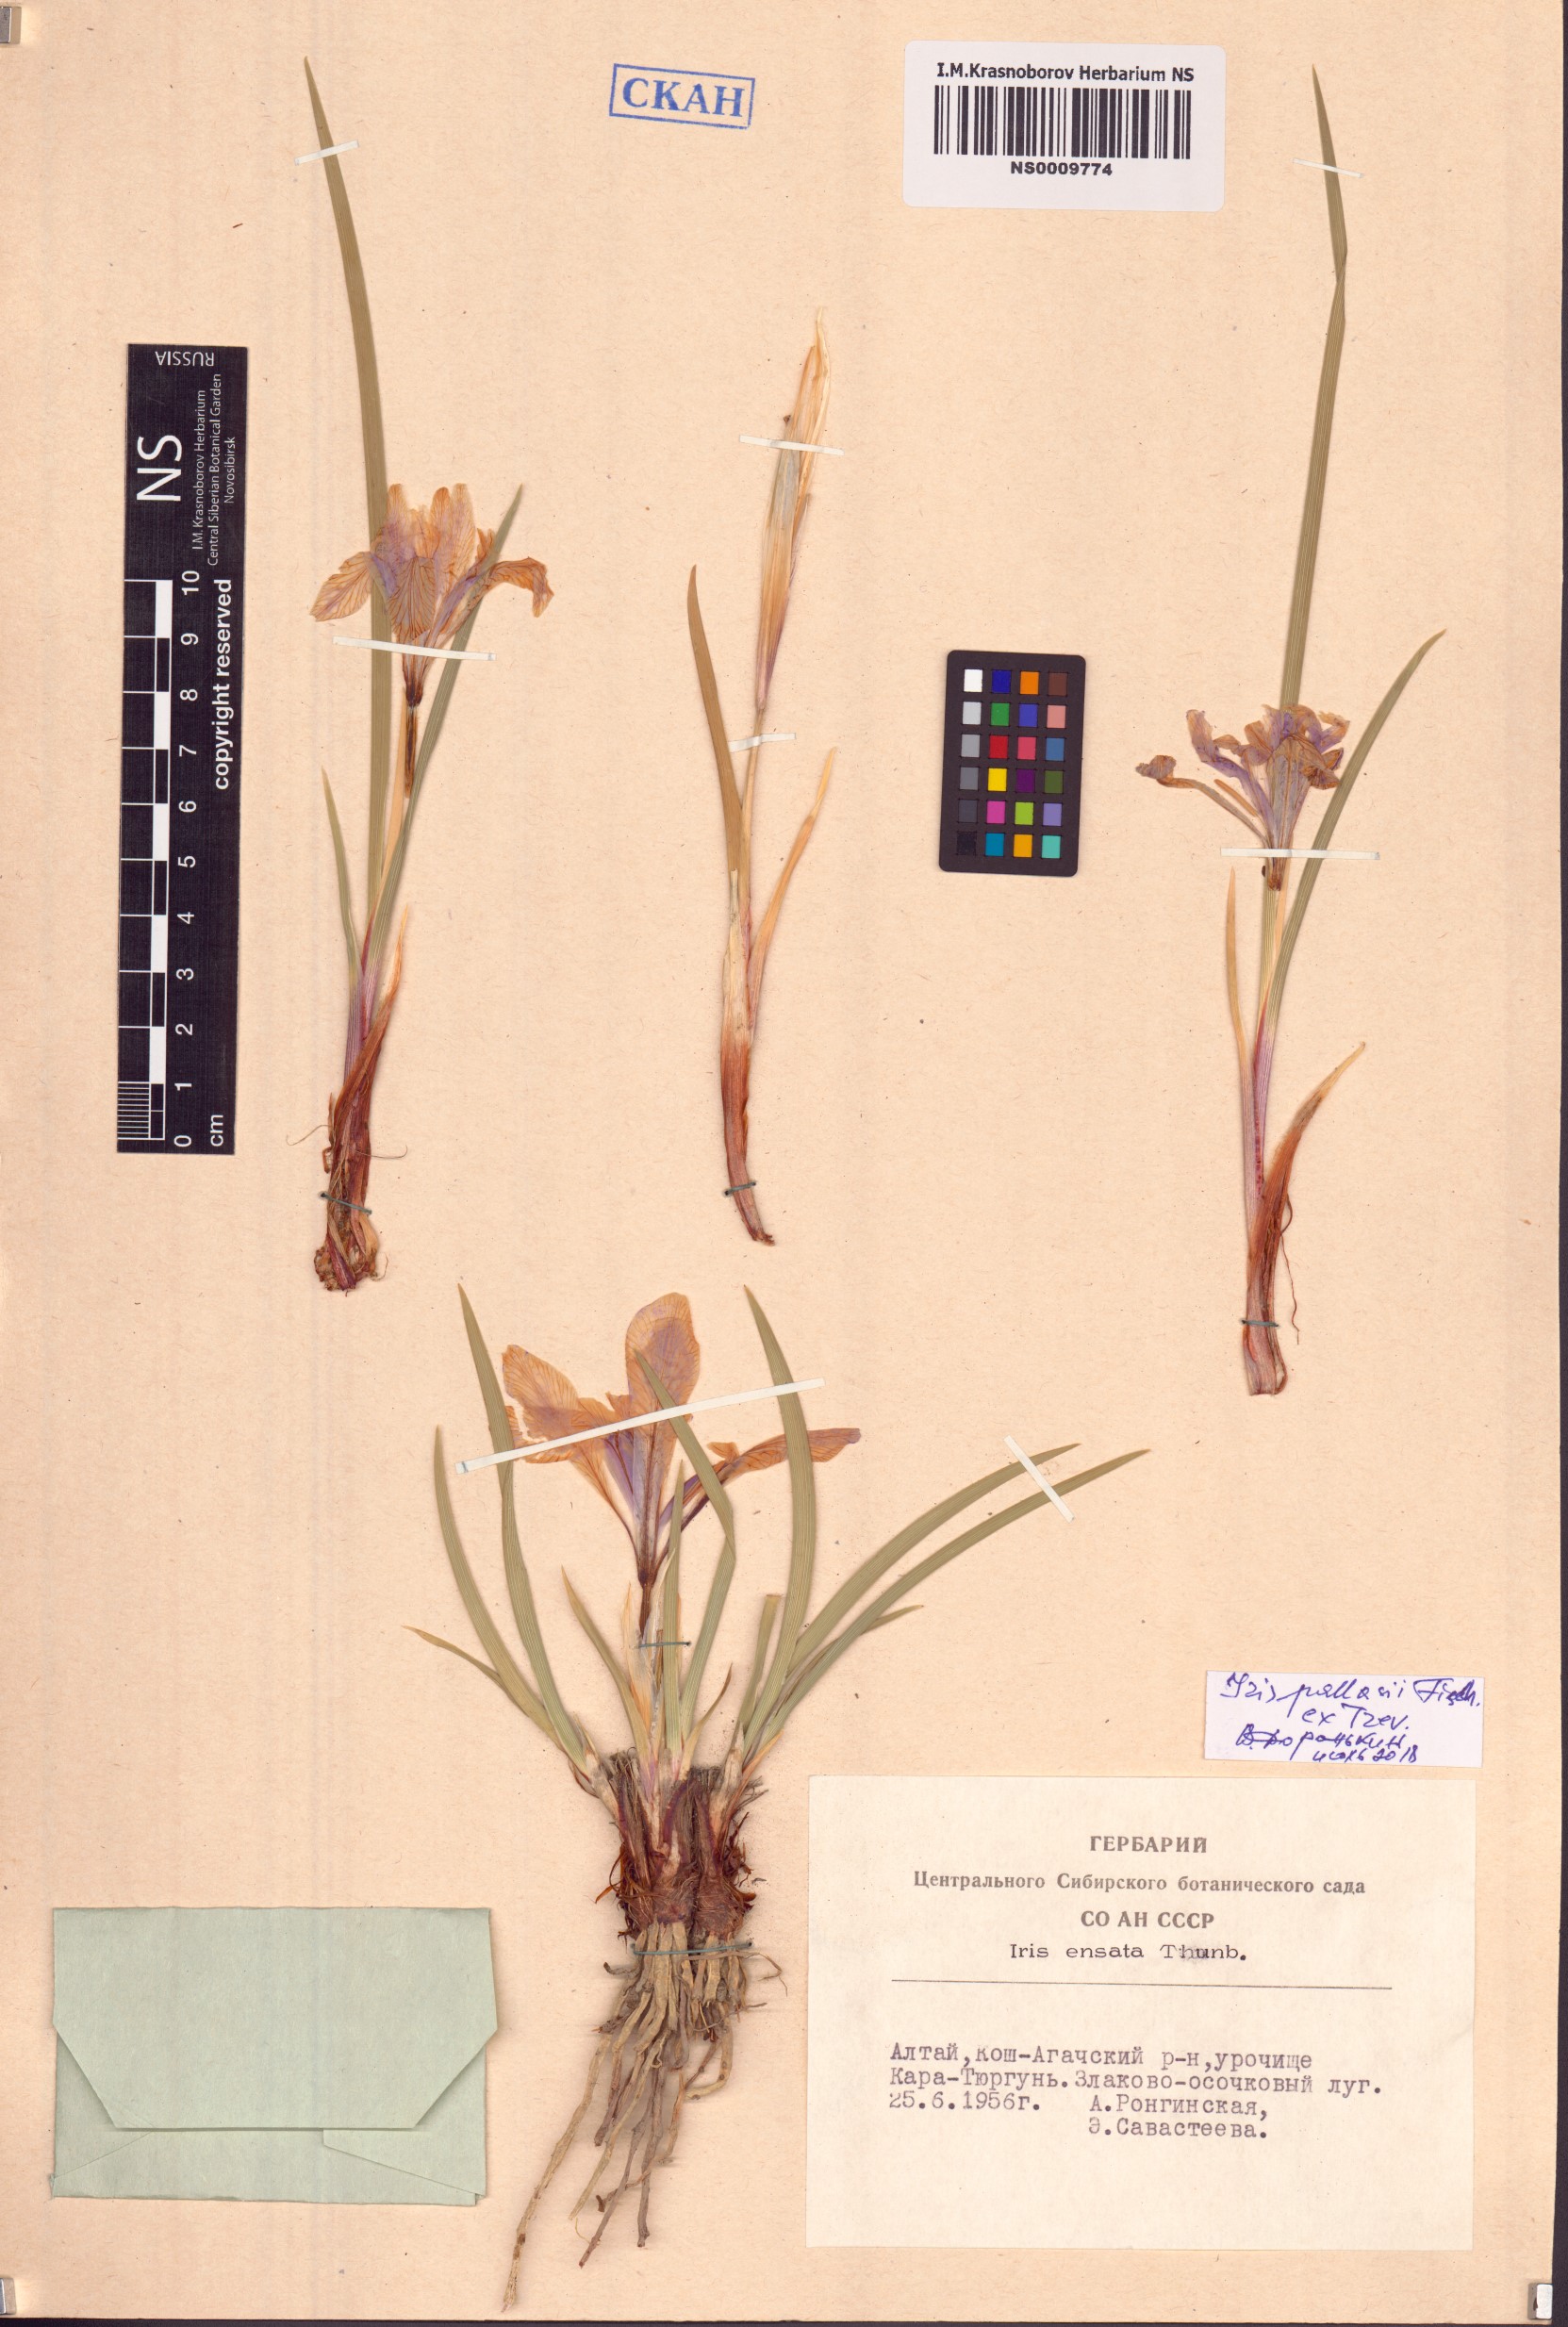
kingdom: Plantae
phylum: Tracheophyta
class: Liliopsida
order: Asparagales
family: Iridaceae
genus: Iris
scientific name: Iris lactea
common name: White-flower chinese iris
